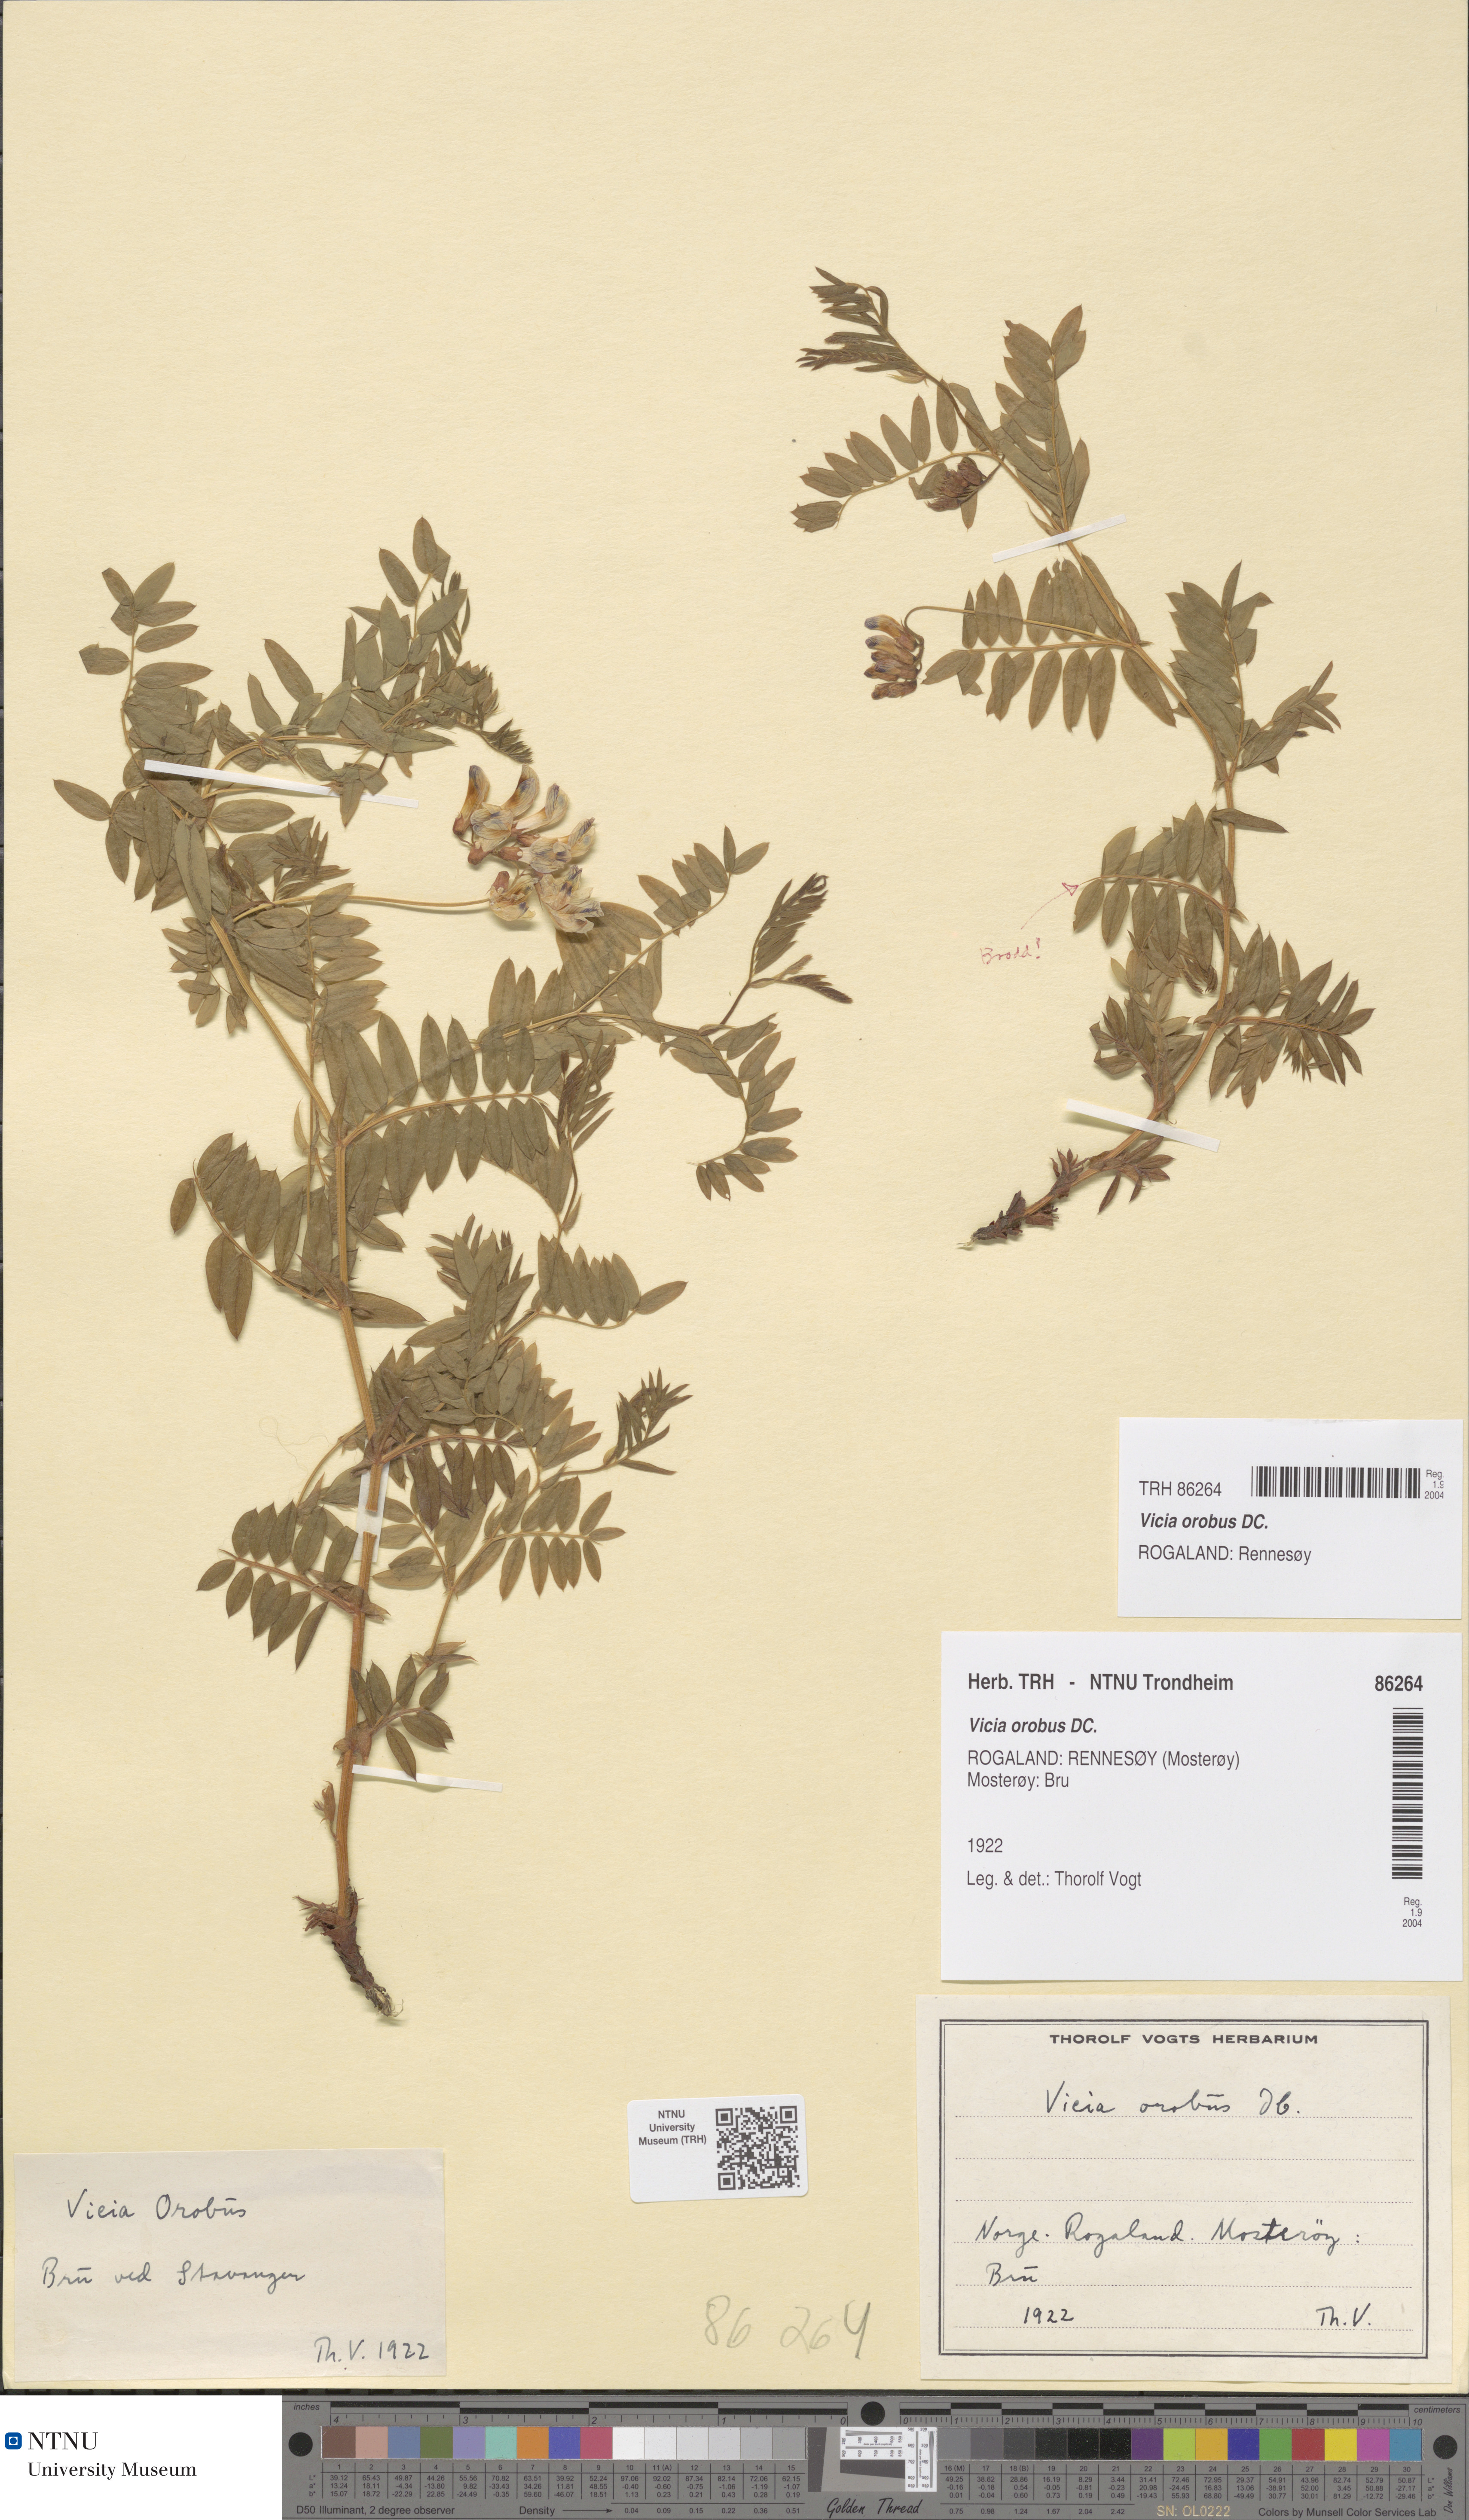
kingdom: Plantae
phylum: Tracheophyta
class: Magnoliopsida
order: Fabales
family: Fabaceae
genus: Vicia
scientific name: Vicia orobus
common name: Wood bitter-vetch
